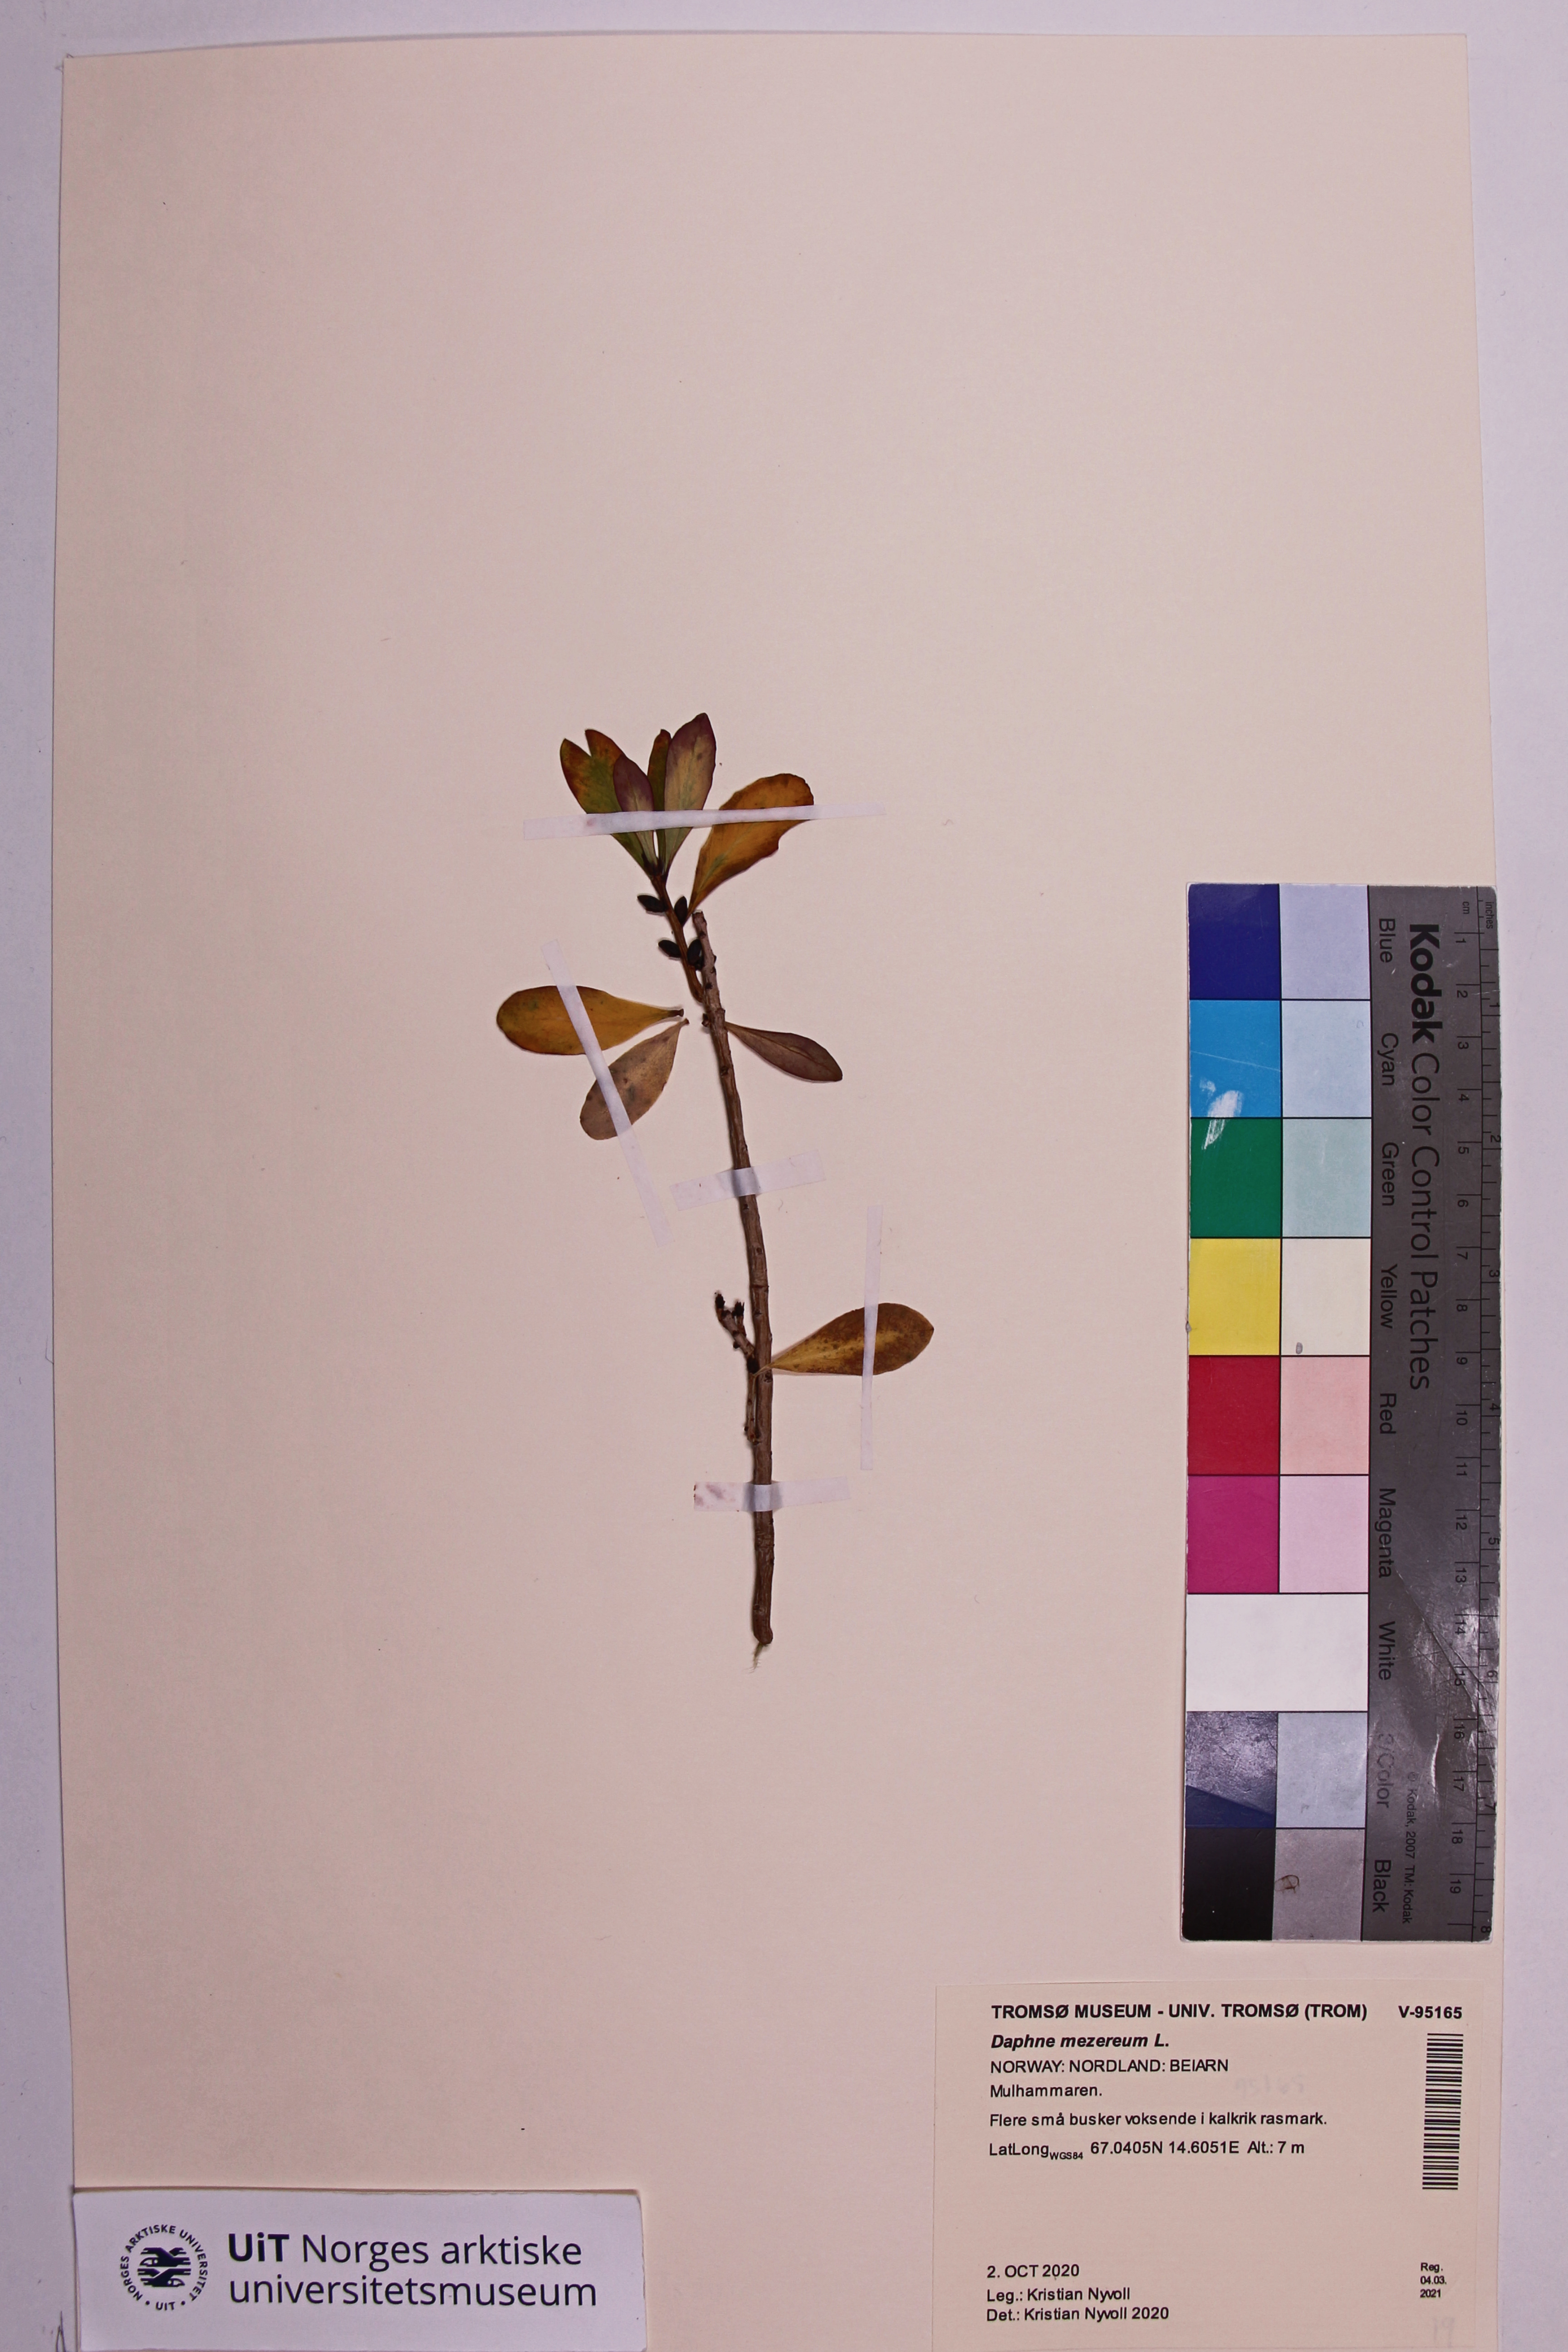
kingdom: Plantae
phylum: Tracheophyta
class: Magnoliopsida
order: Malvales
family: Thymelaeaceae
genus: Daphne
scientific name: Daphne mezereum
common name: Mezereon
